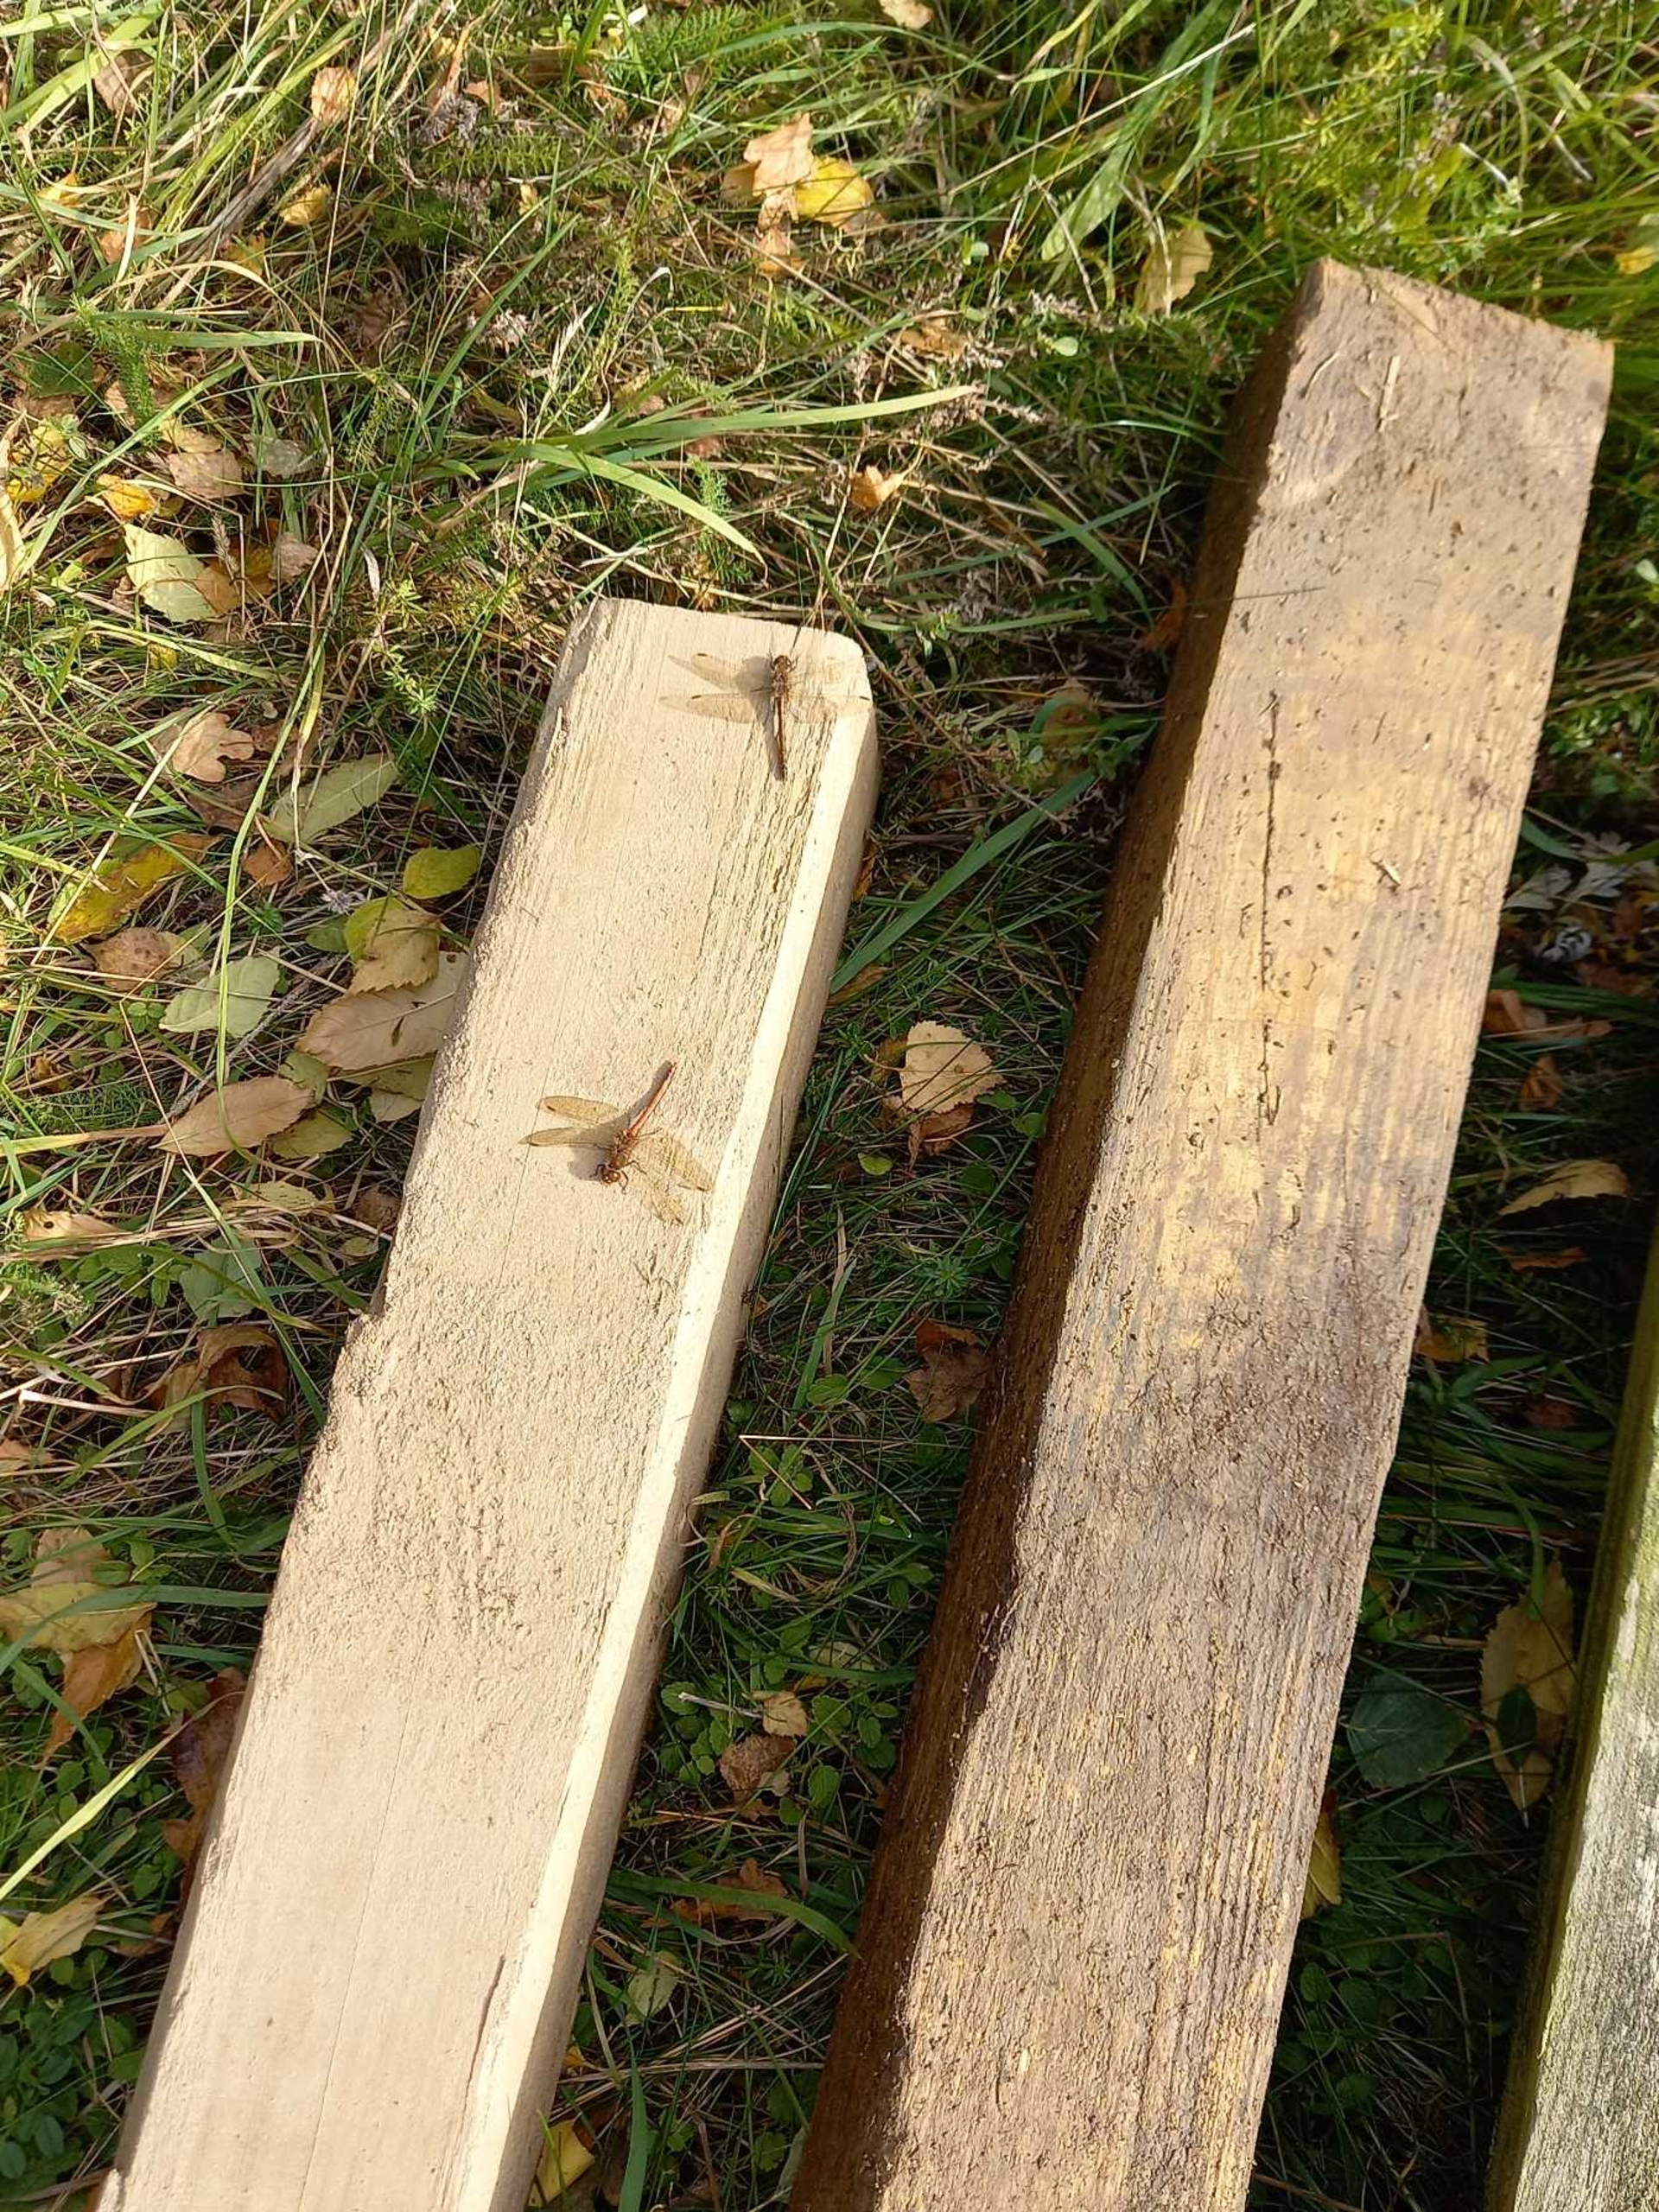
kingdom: Animalia
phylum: Arthropoda
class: Insecta
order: Odonata
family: Libellulidae
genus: Sympetrum
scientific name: Sympetrum
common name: Hedelibeller
